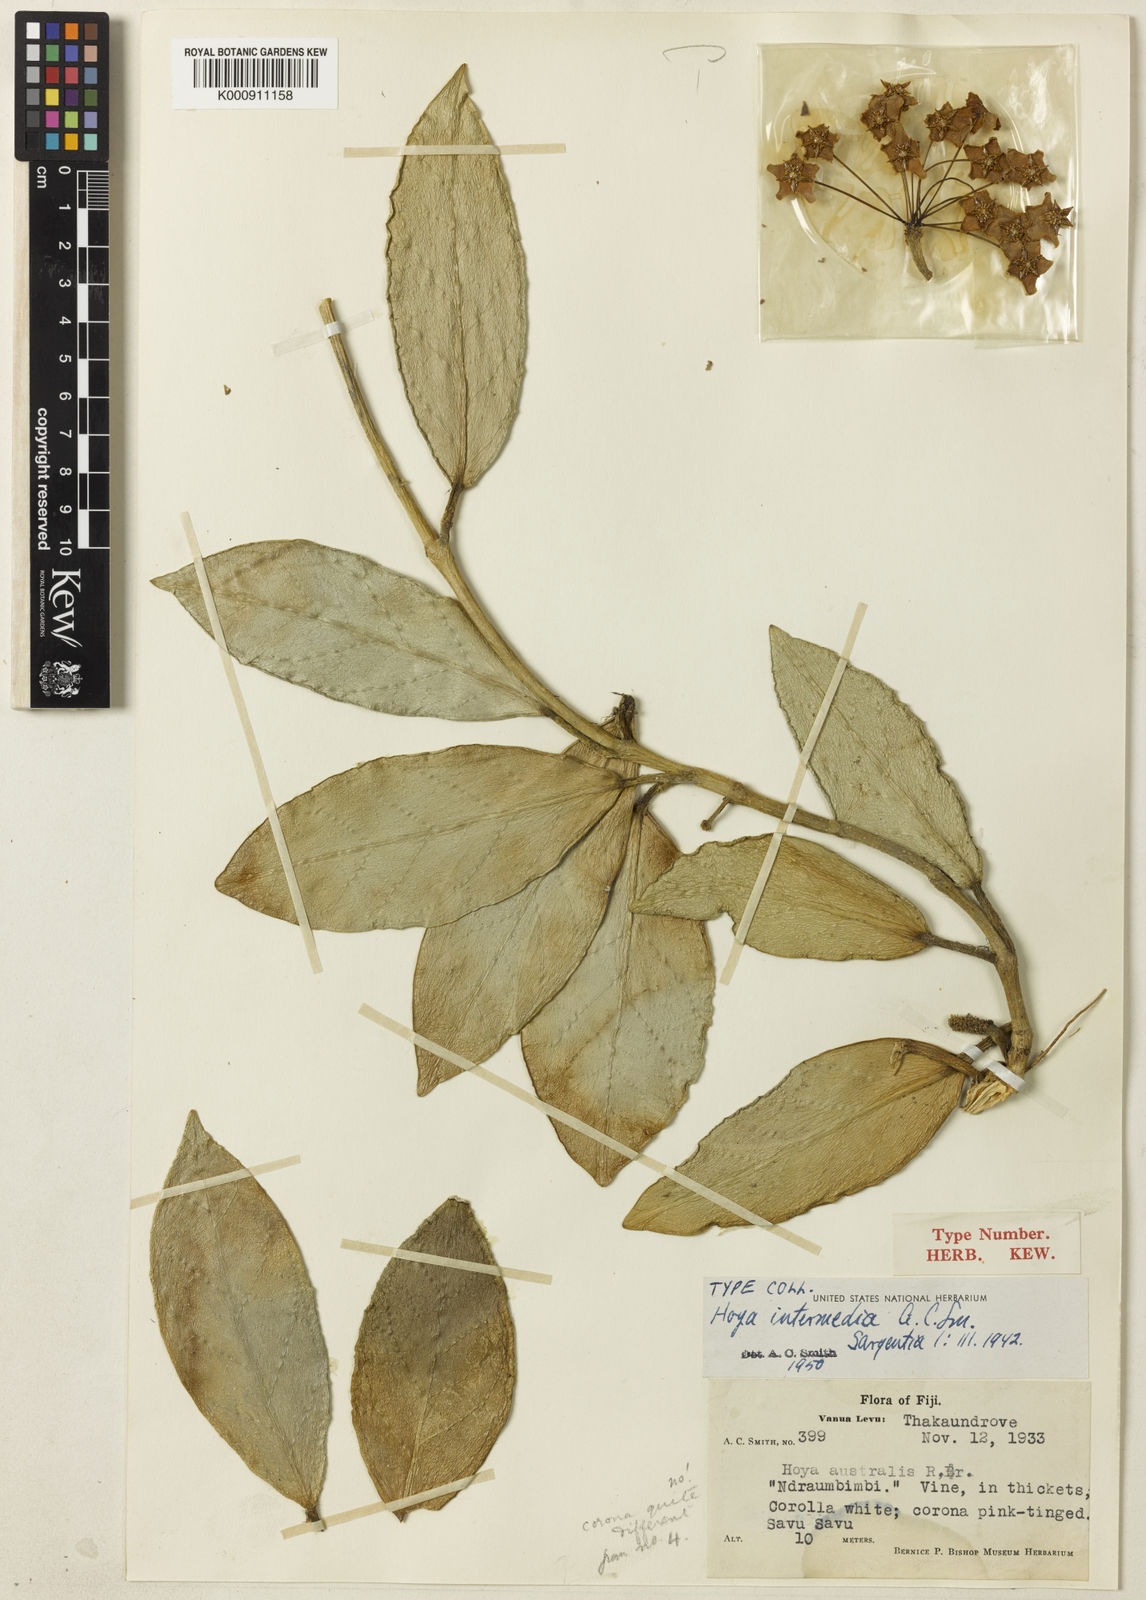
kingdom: Plantae
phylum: Tracheophyta
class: Magnoliopsida
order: Gentianales
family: Apocynaceae
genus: Hoya
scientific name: Hoya carnosa
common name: Honeyplant
